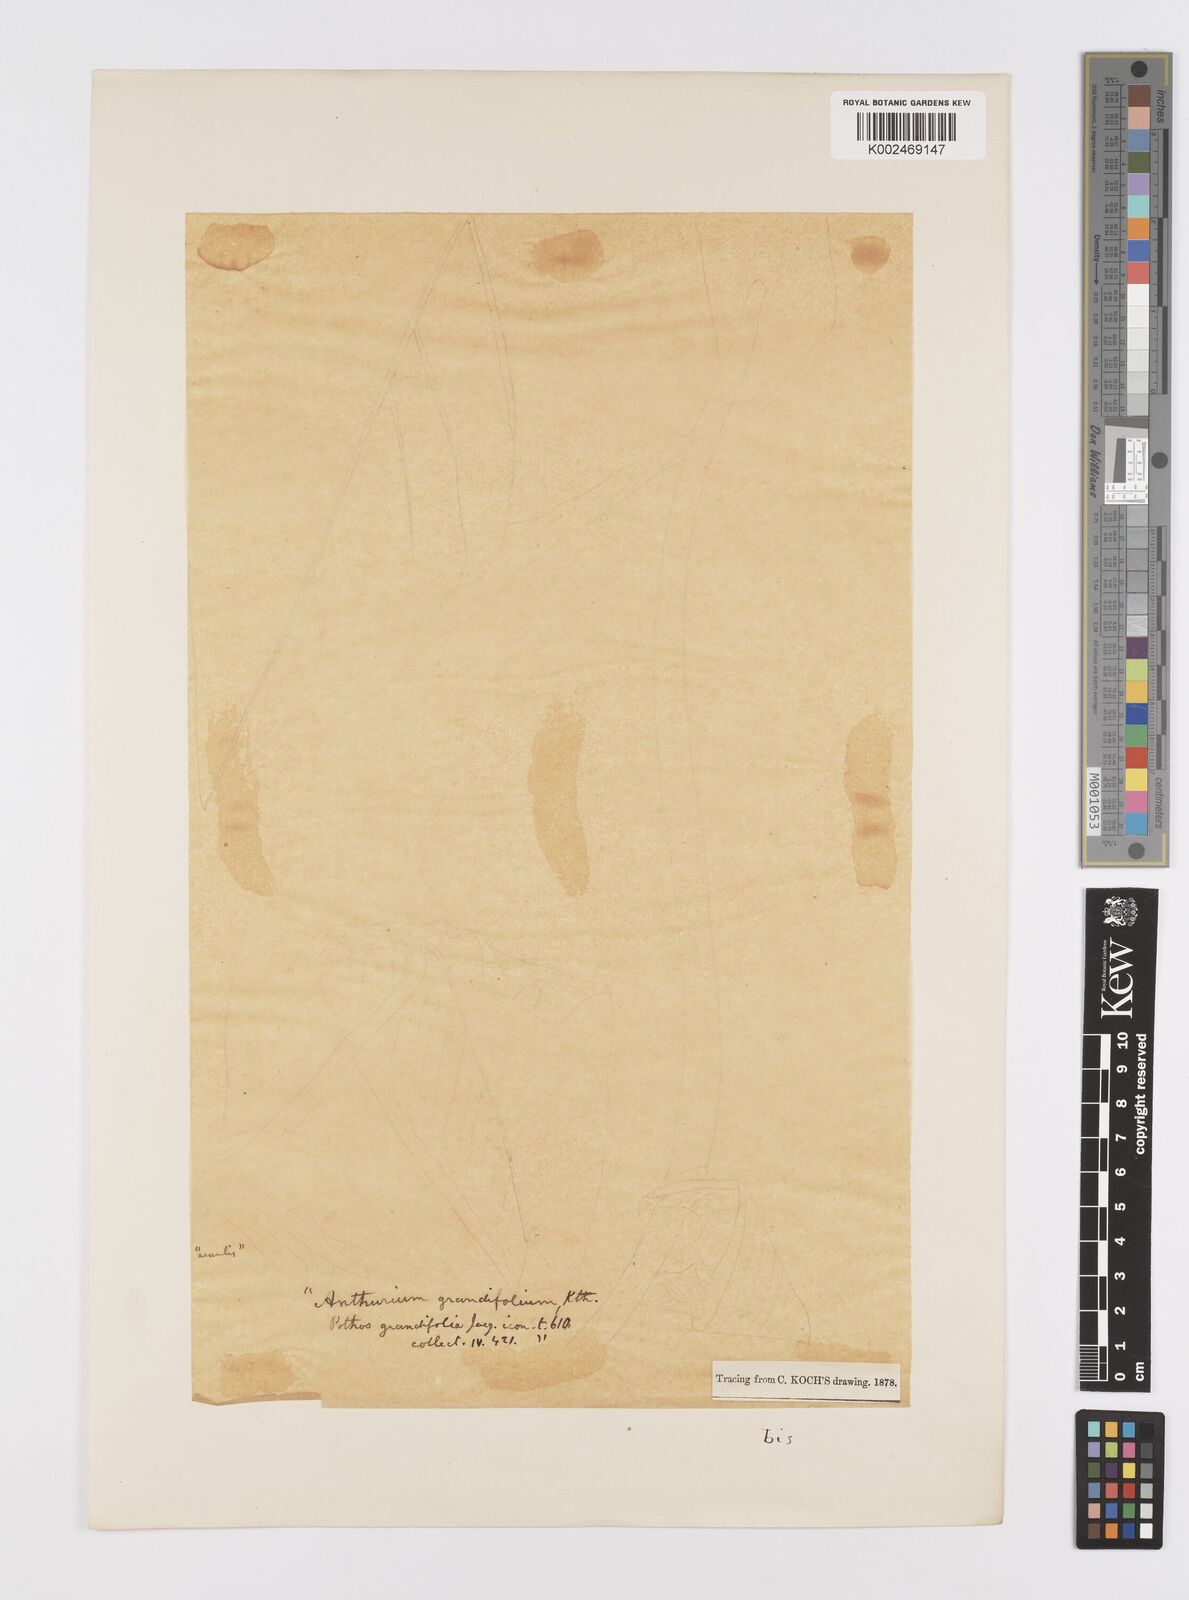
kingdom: Plantae
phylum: Tracheophyta
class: Liliopsida
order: Alismatales
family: Araceae
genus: Anthurium
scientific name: Anthurium grandifolium
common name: Monkey tail
